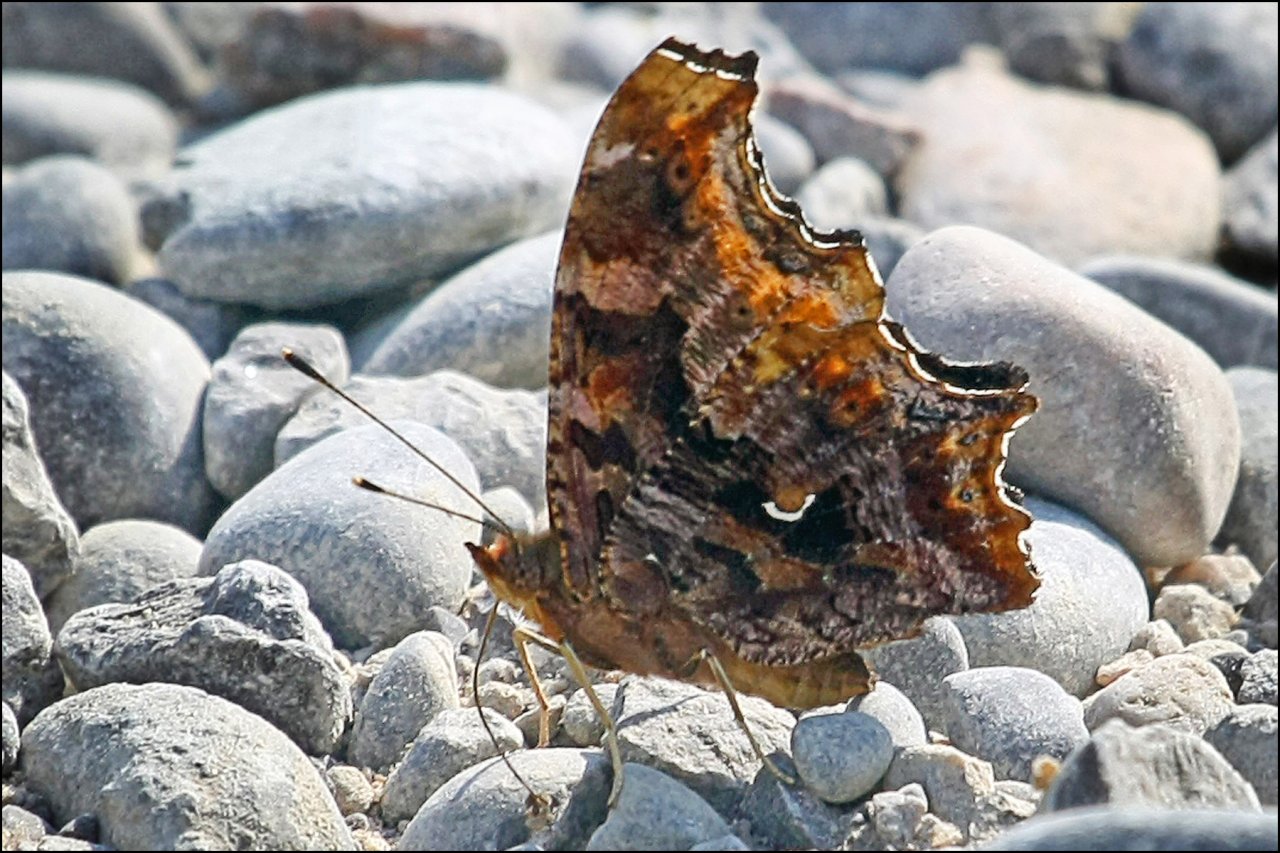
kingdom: Animalia
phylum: Arthropoda
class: Insecta
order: Lepidoptera
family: Nymphalidae
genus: Polygonia
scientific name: Polygonia comma
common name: Eastern Comma
